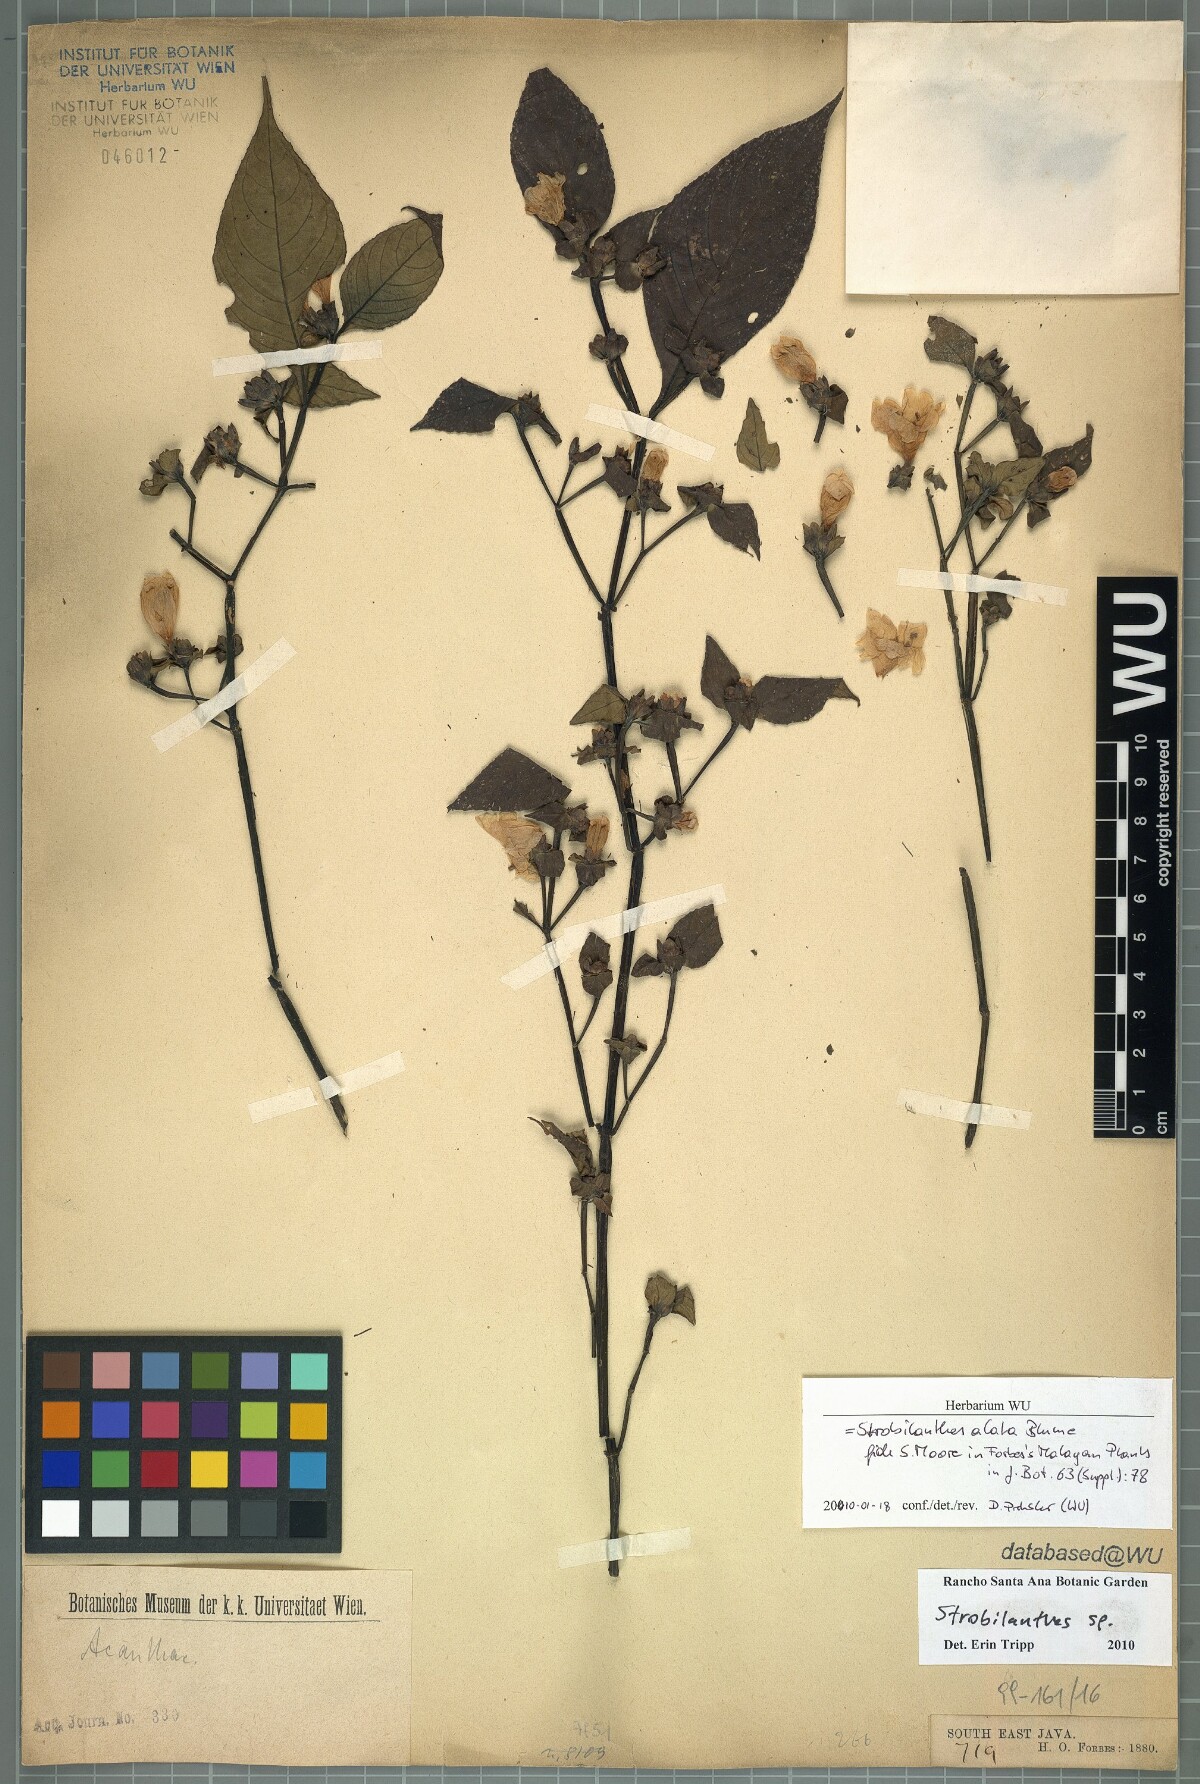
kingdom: Plantae
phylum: Tracheophyta
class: Magnoliopsida
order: Lamiales
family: Acanthaceae
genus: Strobilanthes
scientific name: Strobilanthes alata
